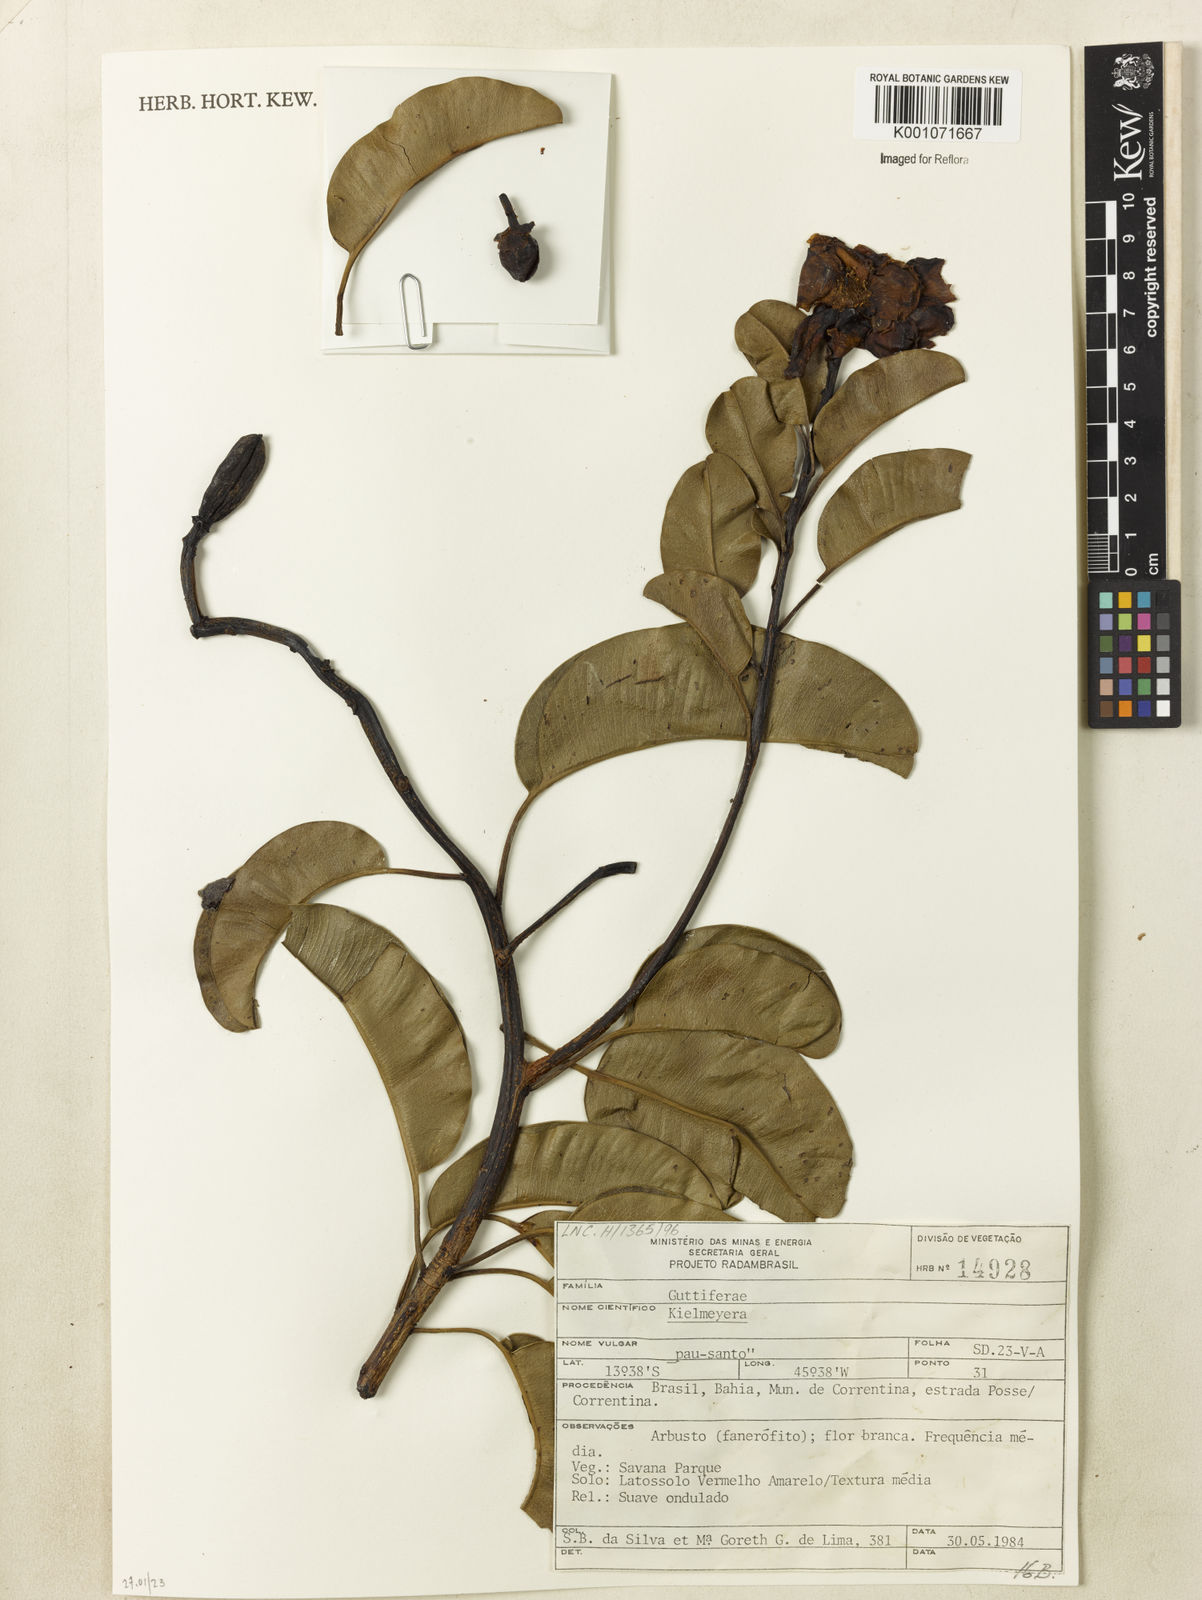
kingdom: Plantae
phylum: Tracheophyta
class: Magnoliopsida
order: Malpighiales
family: Calophyllaceae
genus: Kielmeyera
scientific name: Kielmeyera
